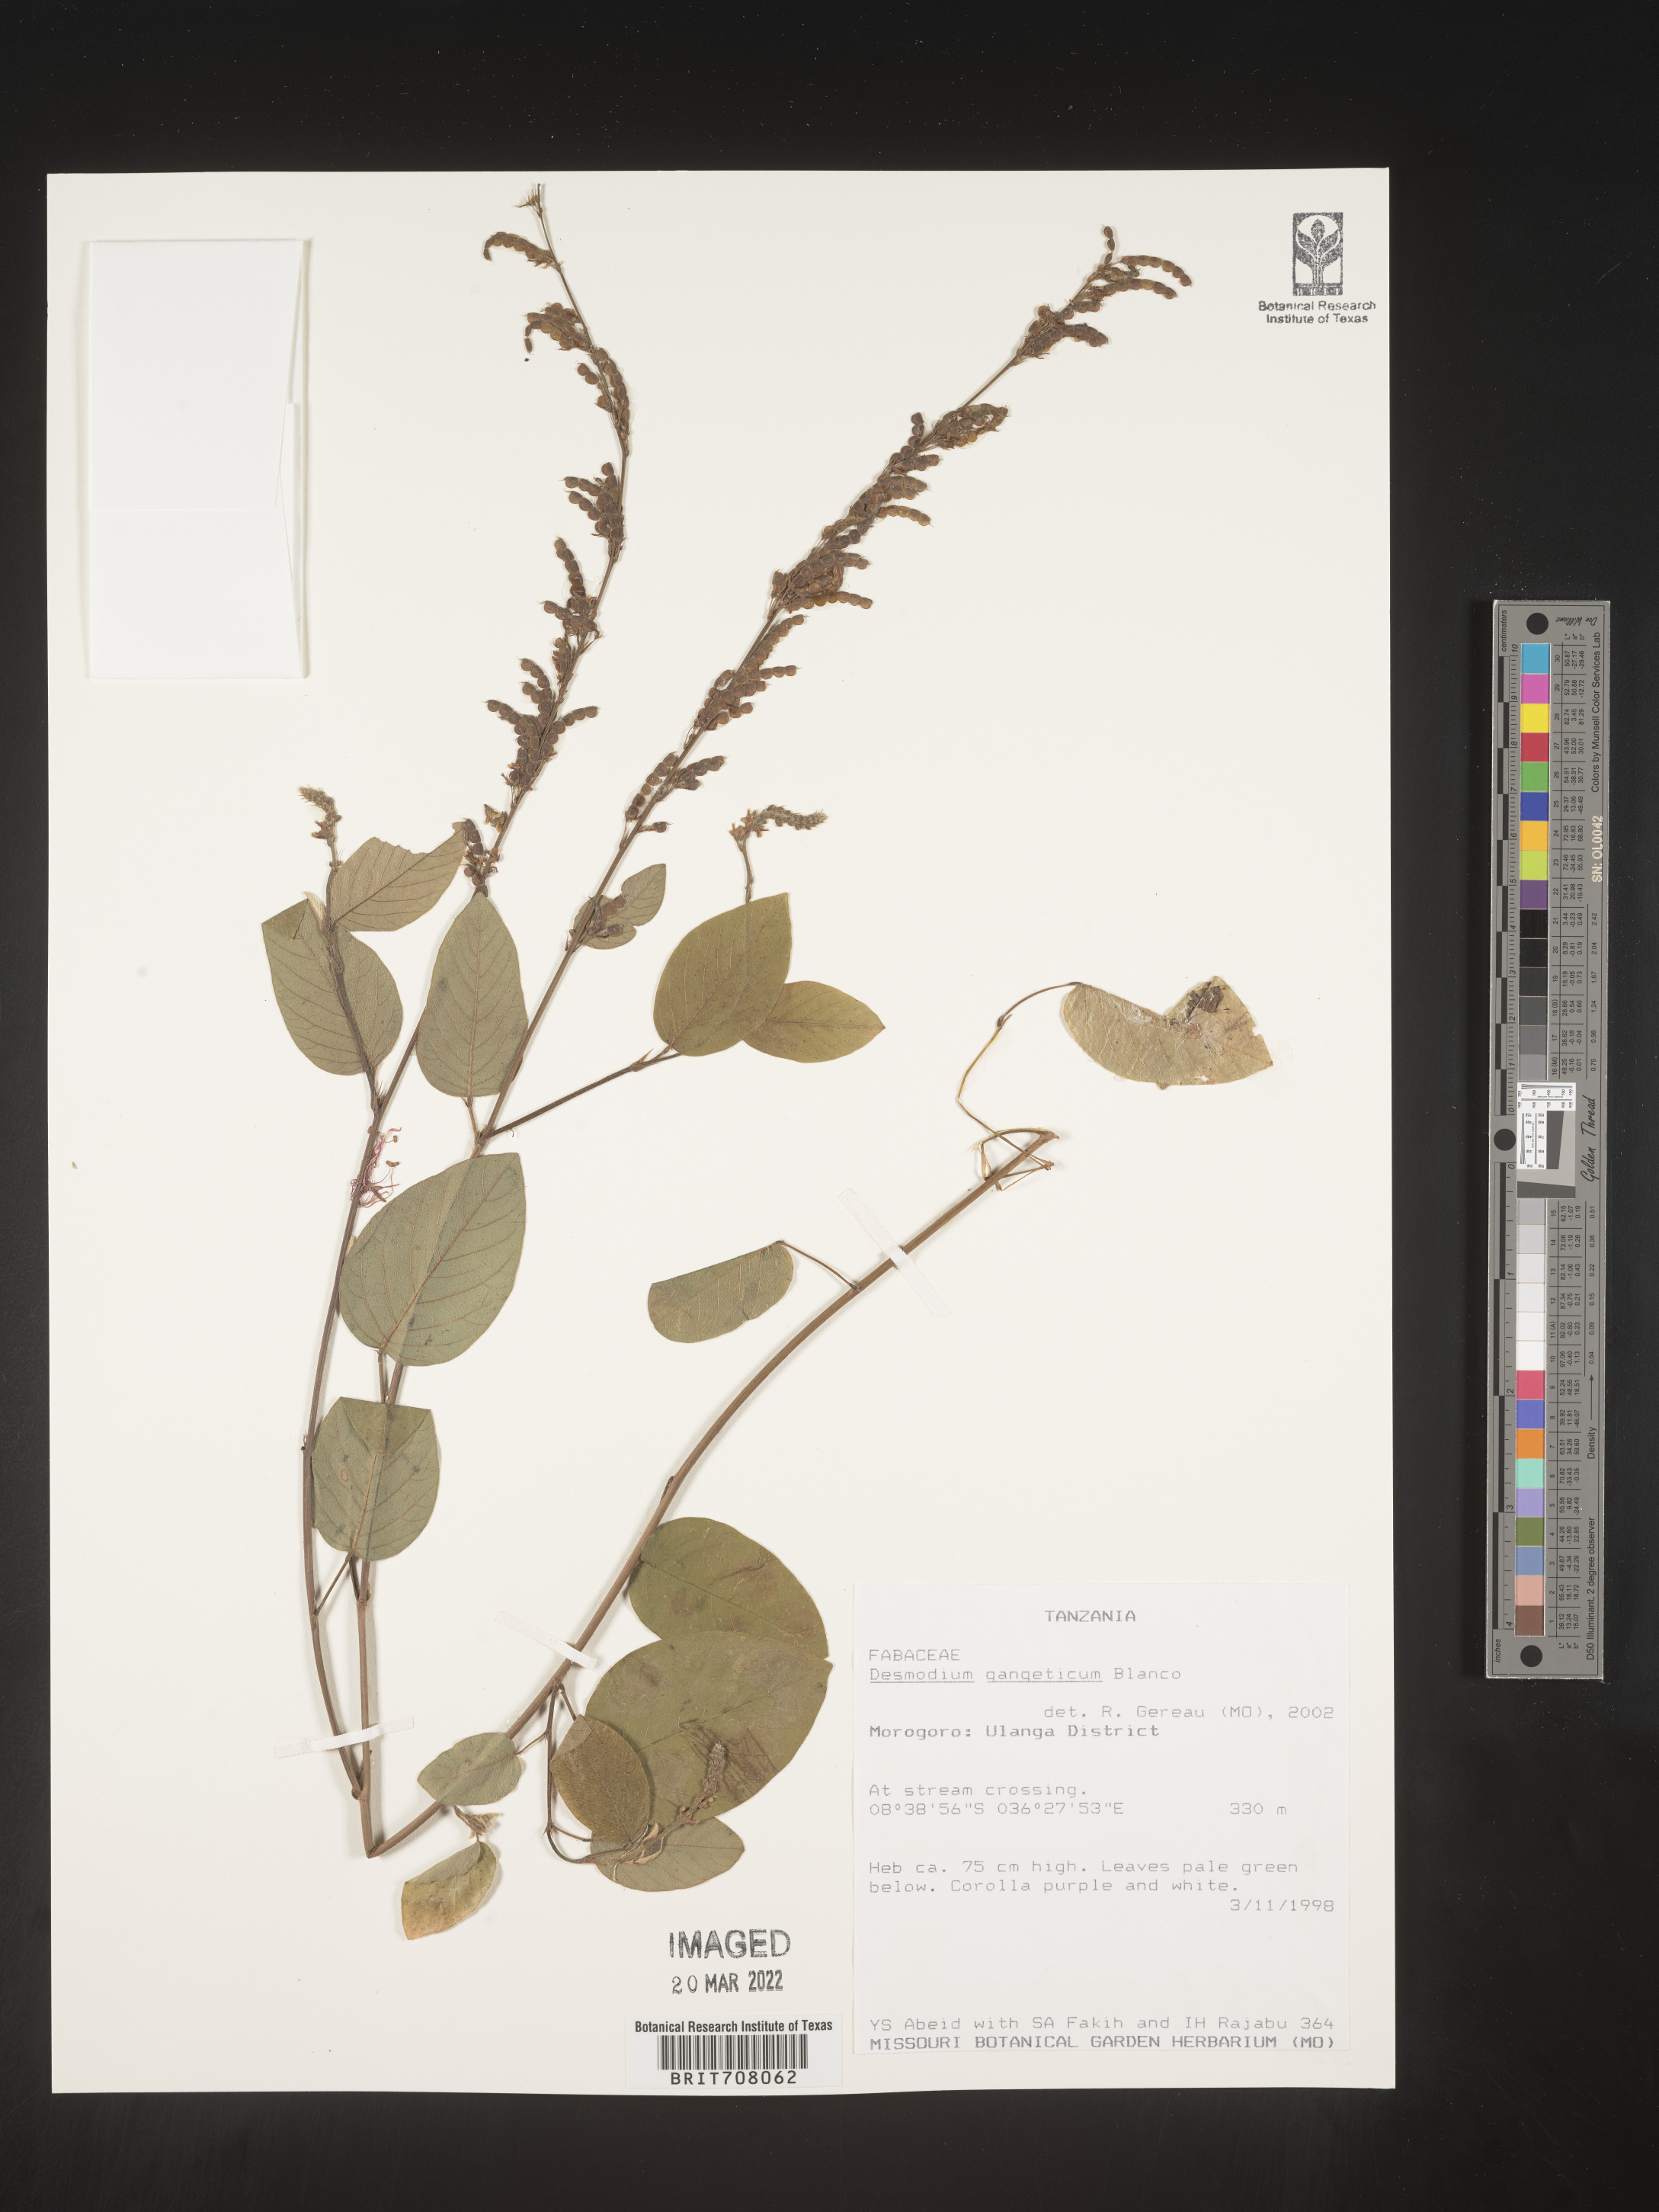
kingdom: Plantae
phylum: Tracheophyta
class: Magnoliopsida
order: Fabales
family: Fabaceae
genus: Desmodium
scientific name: Desmodium
